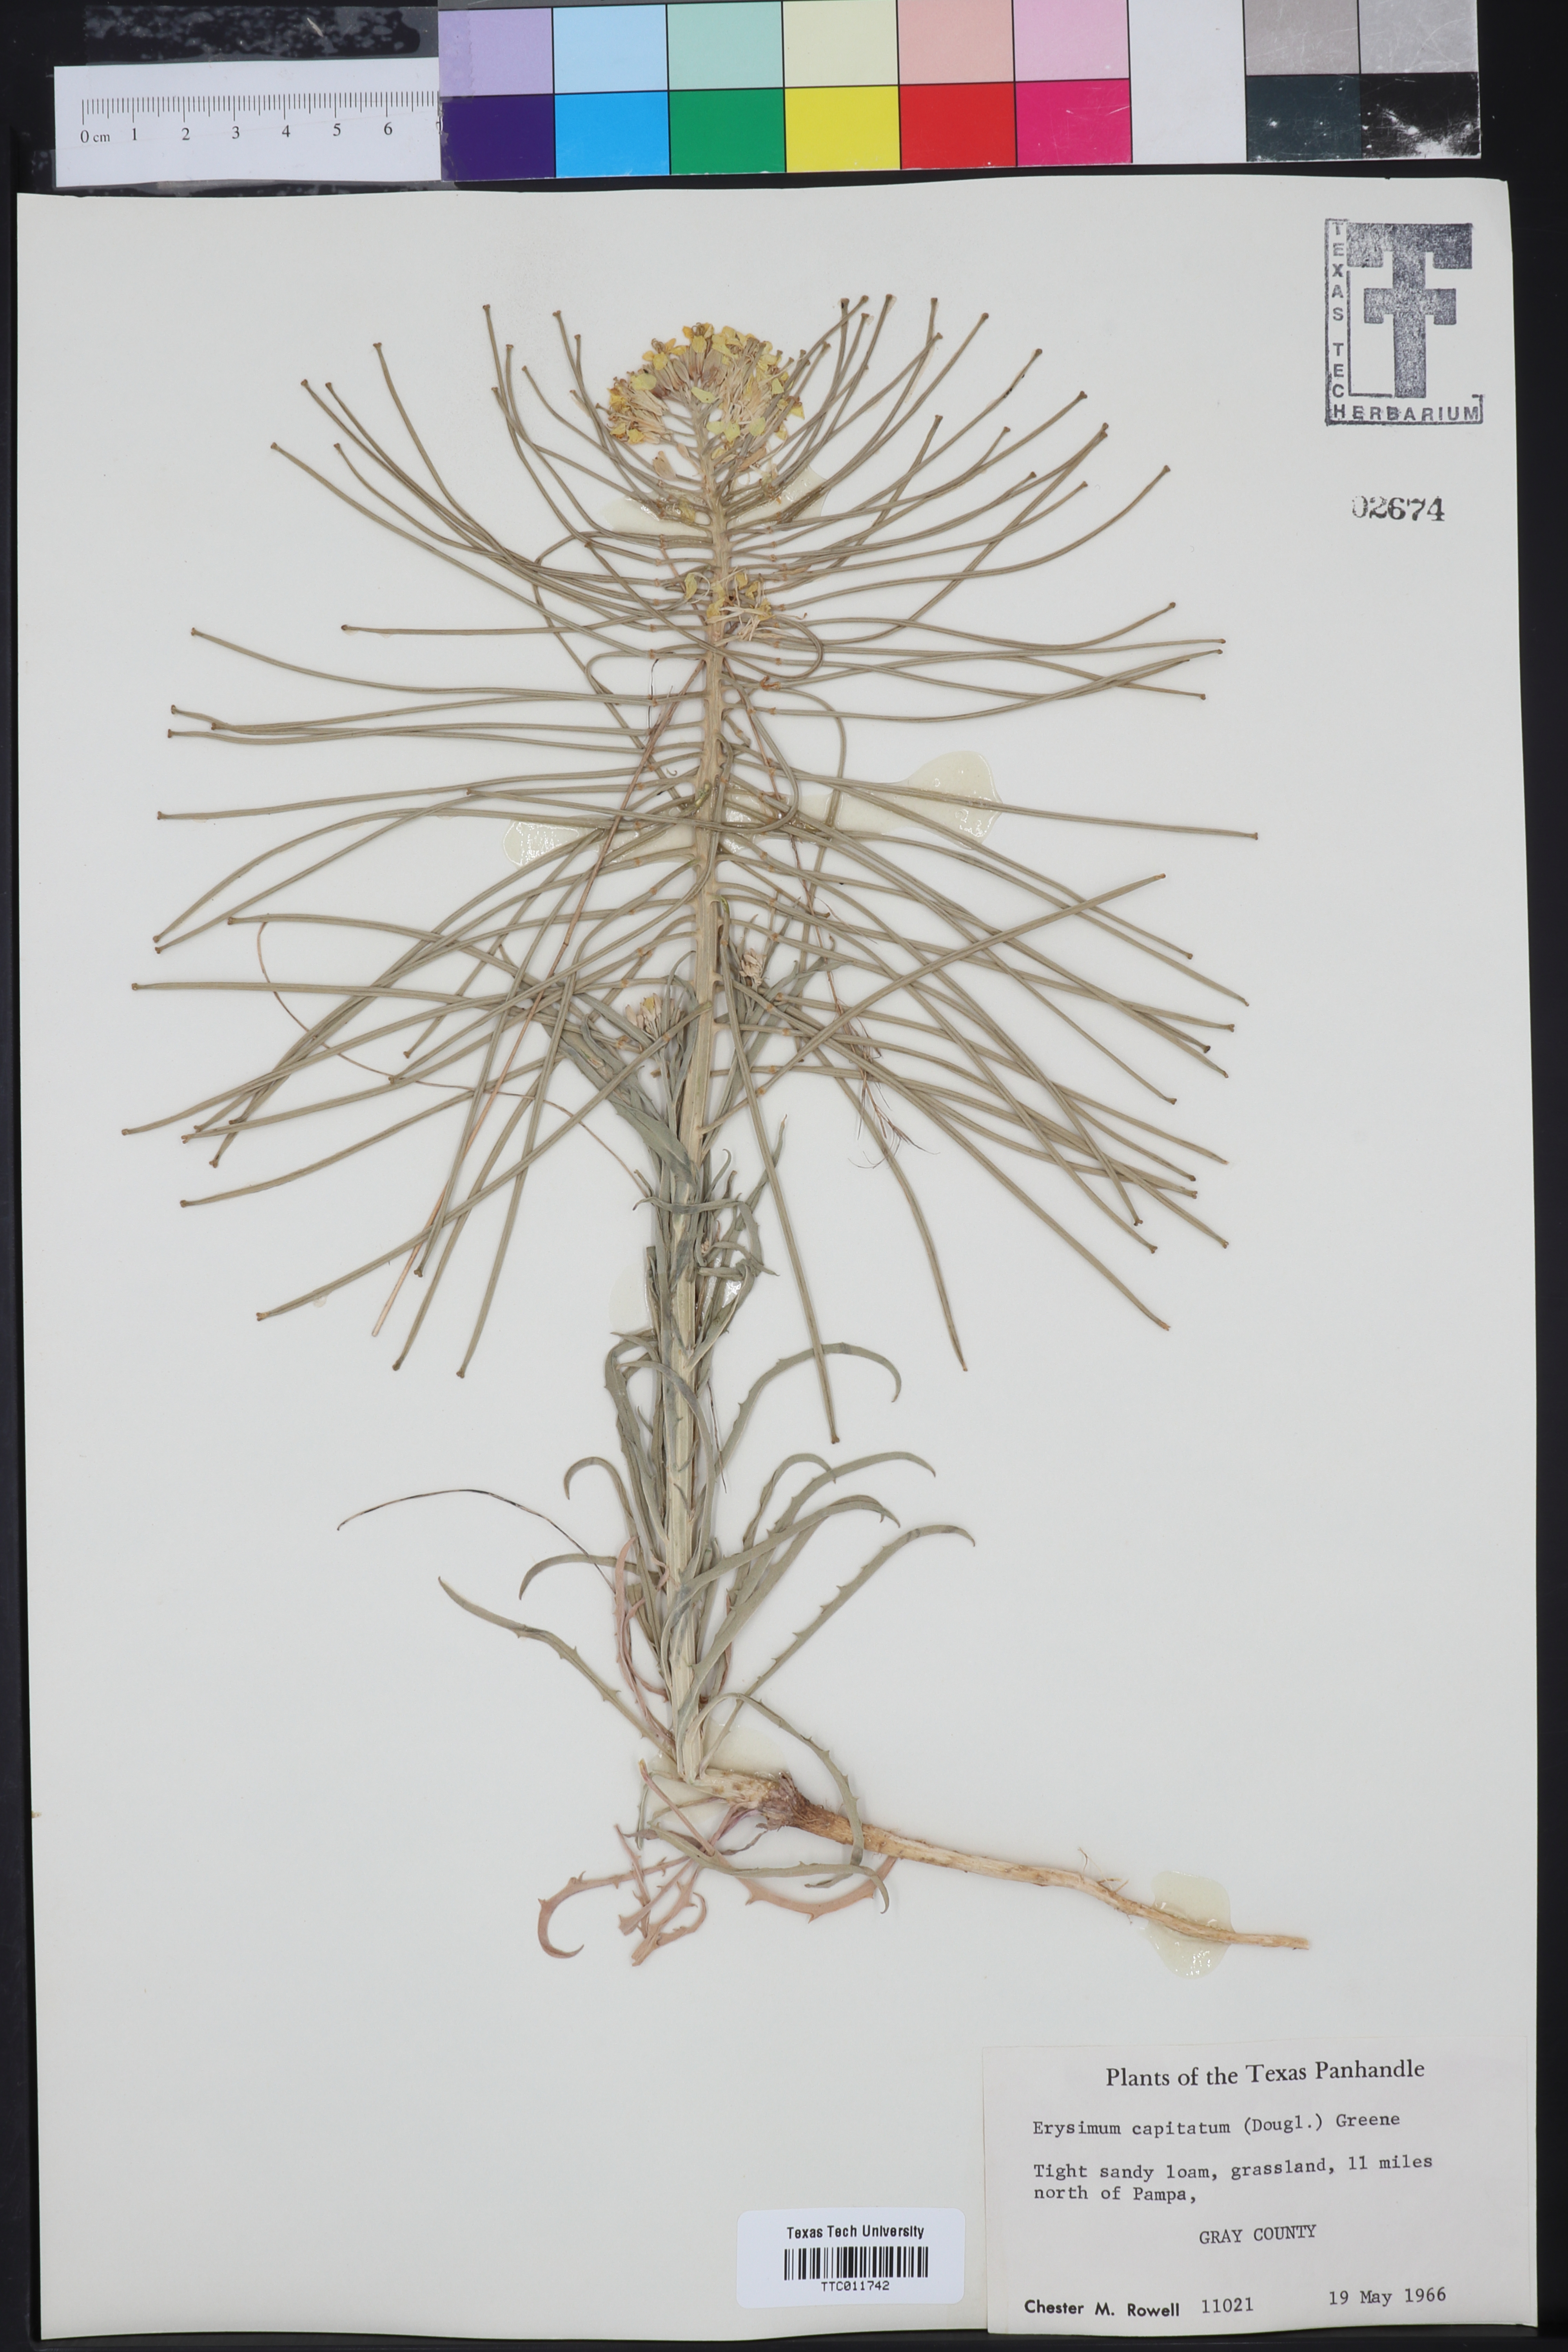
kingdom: Plantae
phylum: Tracheophyta
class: Magnoliopsida
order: Brassicales
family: Brassicaceae
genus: Erysimum
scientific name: Erysimum capitatum
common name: Western wallflower
